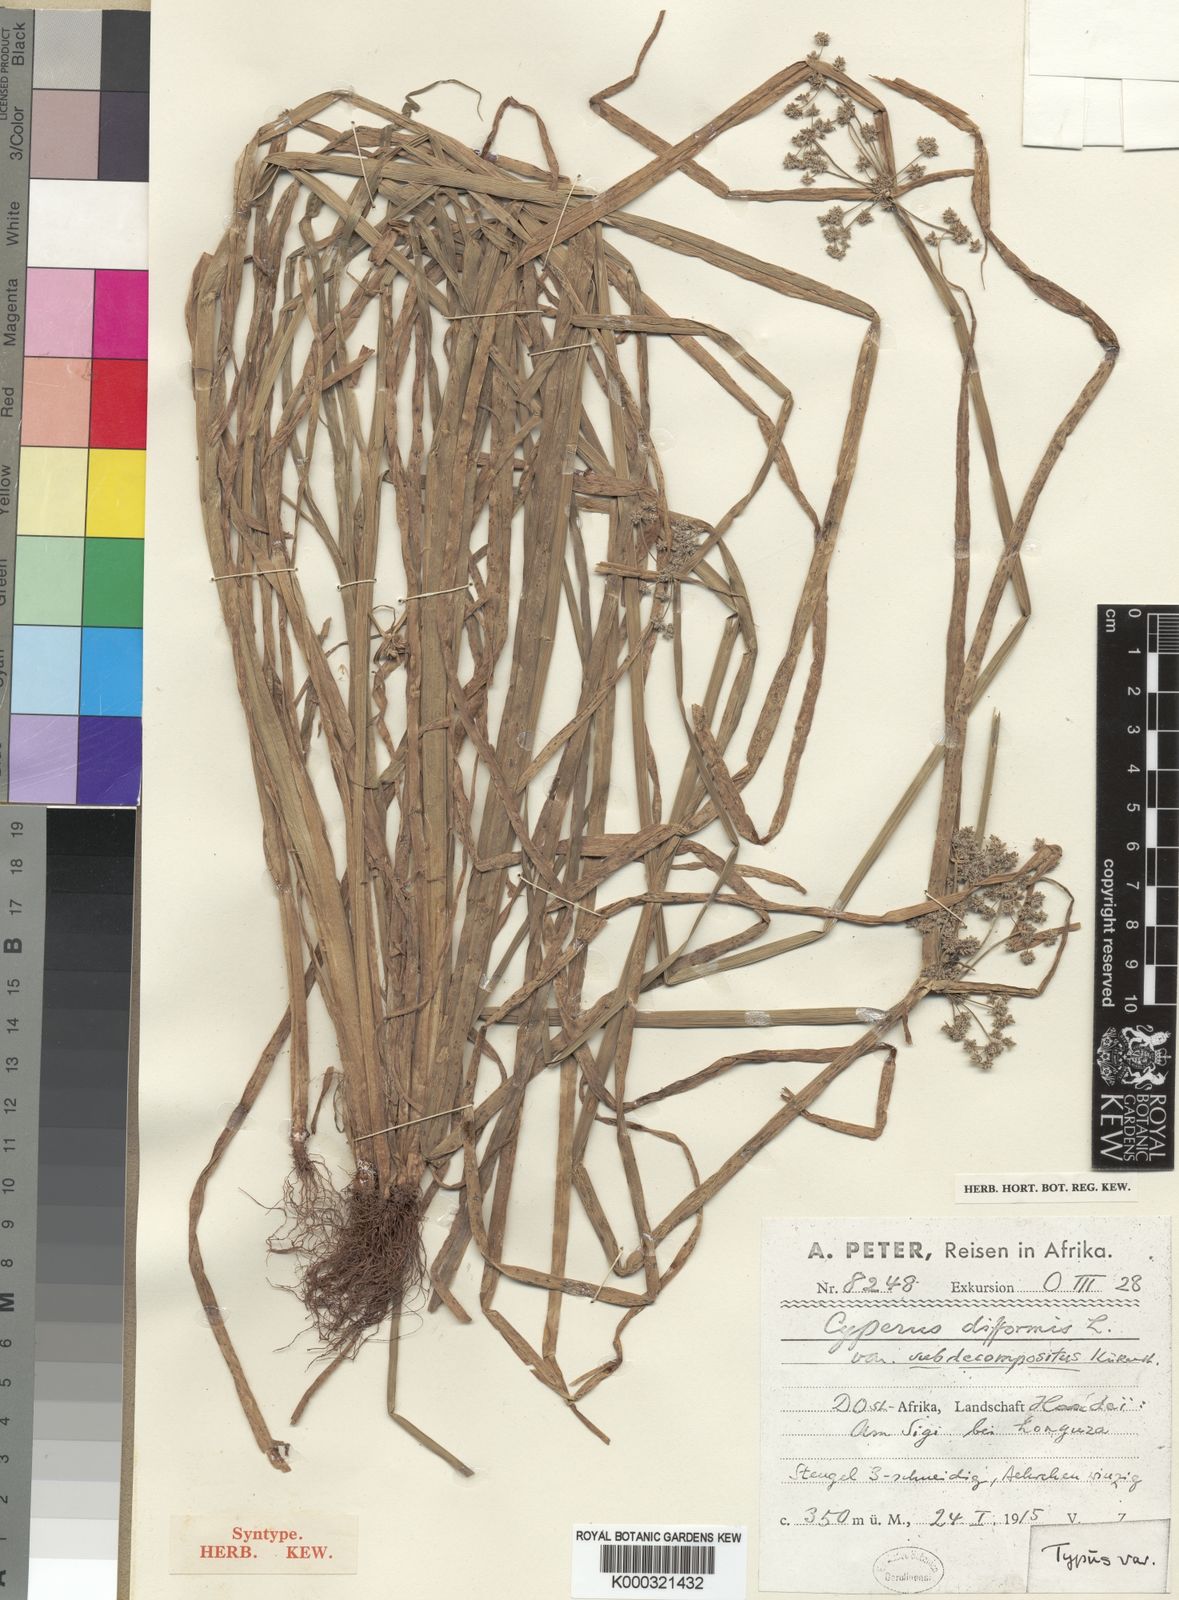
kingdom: Plantae
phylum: Tracheophyta
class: Liliopsida
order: Poales
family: Cyperaceae
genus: Cyperus
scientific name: Cyperus difformis
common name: Variable flatsedge
